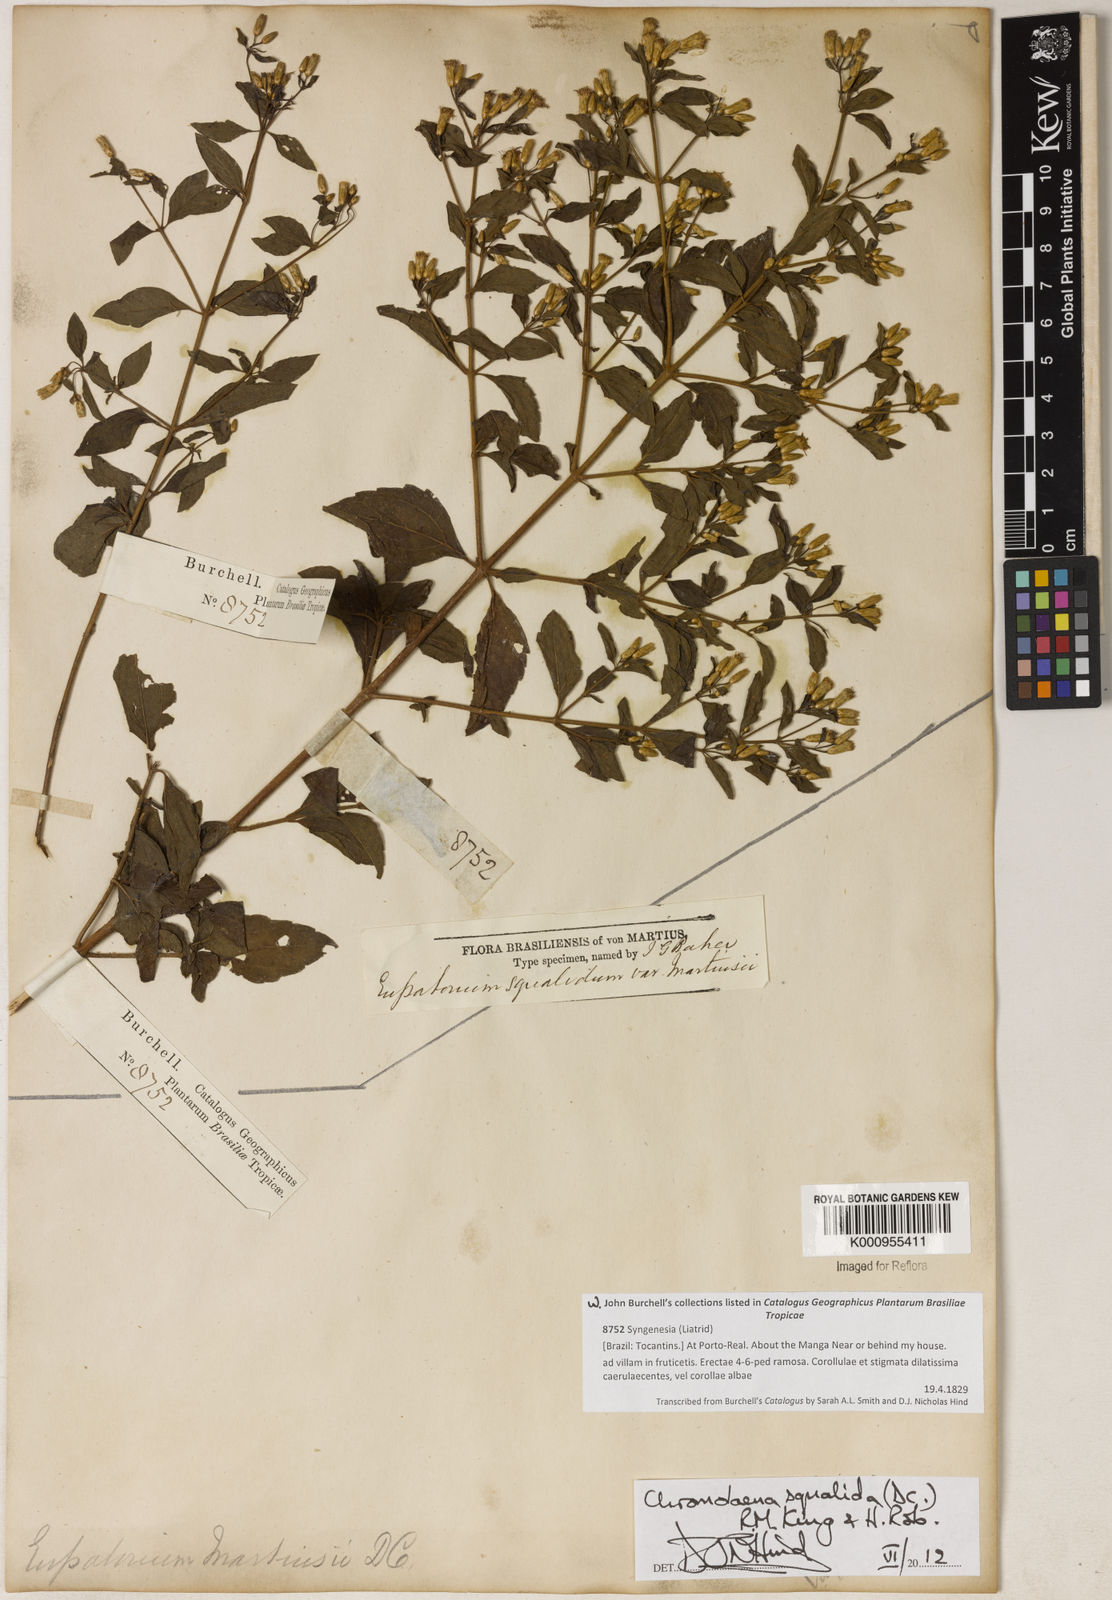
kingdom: Plantae
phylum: Tracheophyta
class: Magnoliopsida
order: Asterales
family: Asteraceae
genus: Chromolaena
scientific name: Chromolaena squalida
